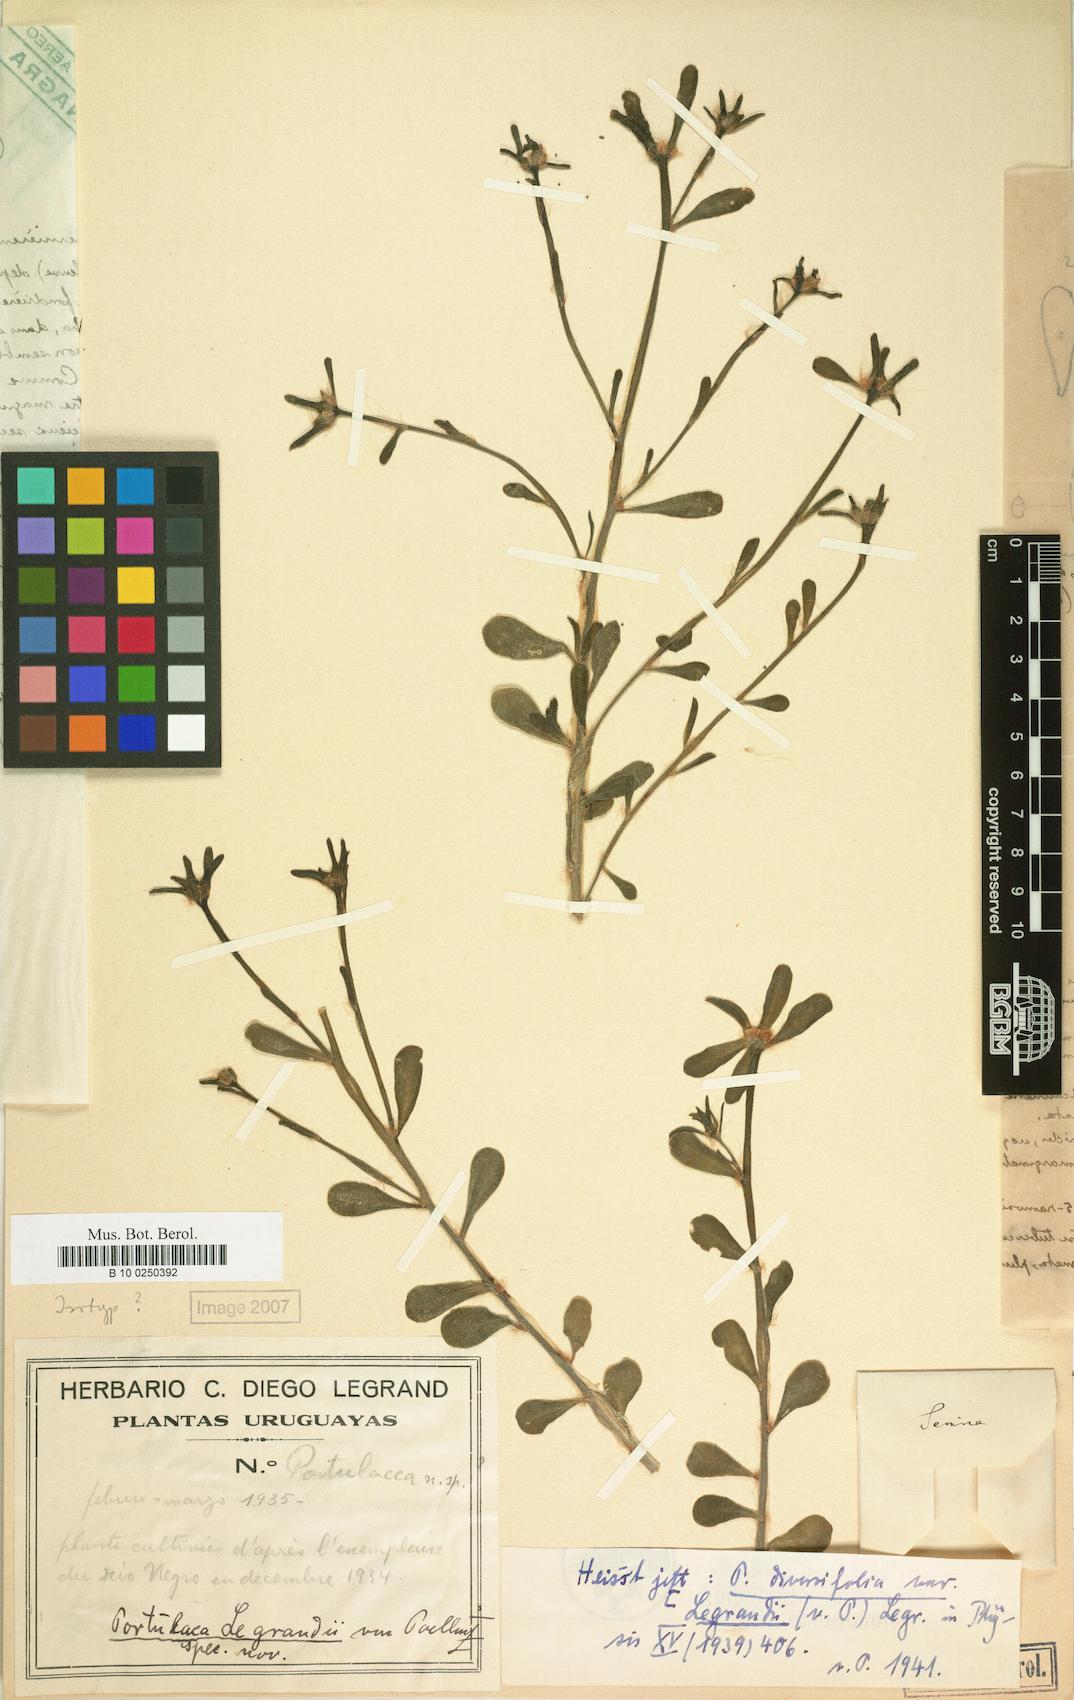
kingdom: Plantae
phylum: Tracheophyta
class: Magnoliopsida
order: Caryophyllales
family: Portulacaceae
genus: Portulaca
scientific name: Portulaca cryptopetala
